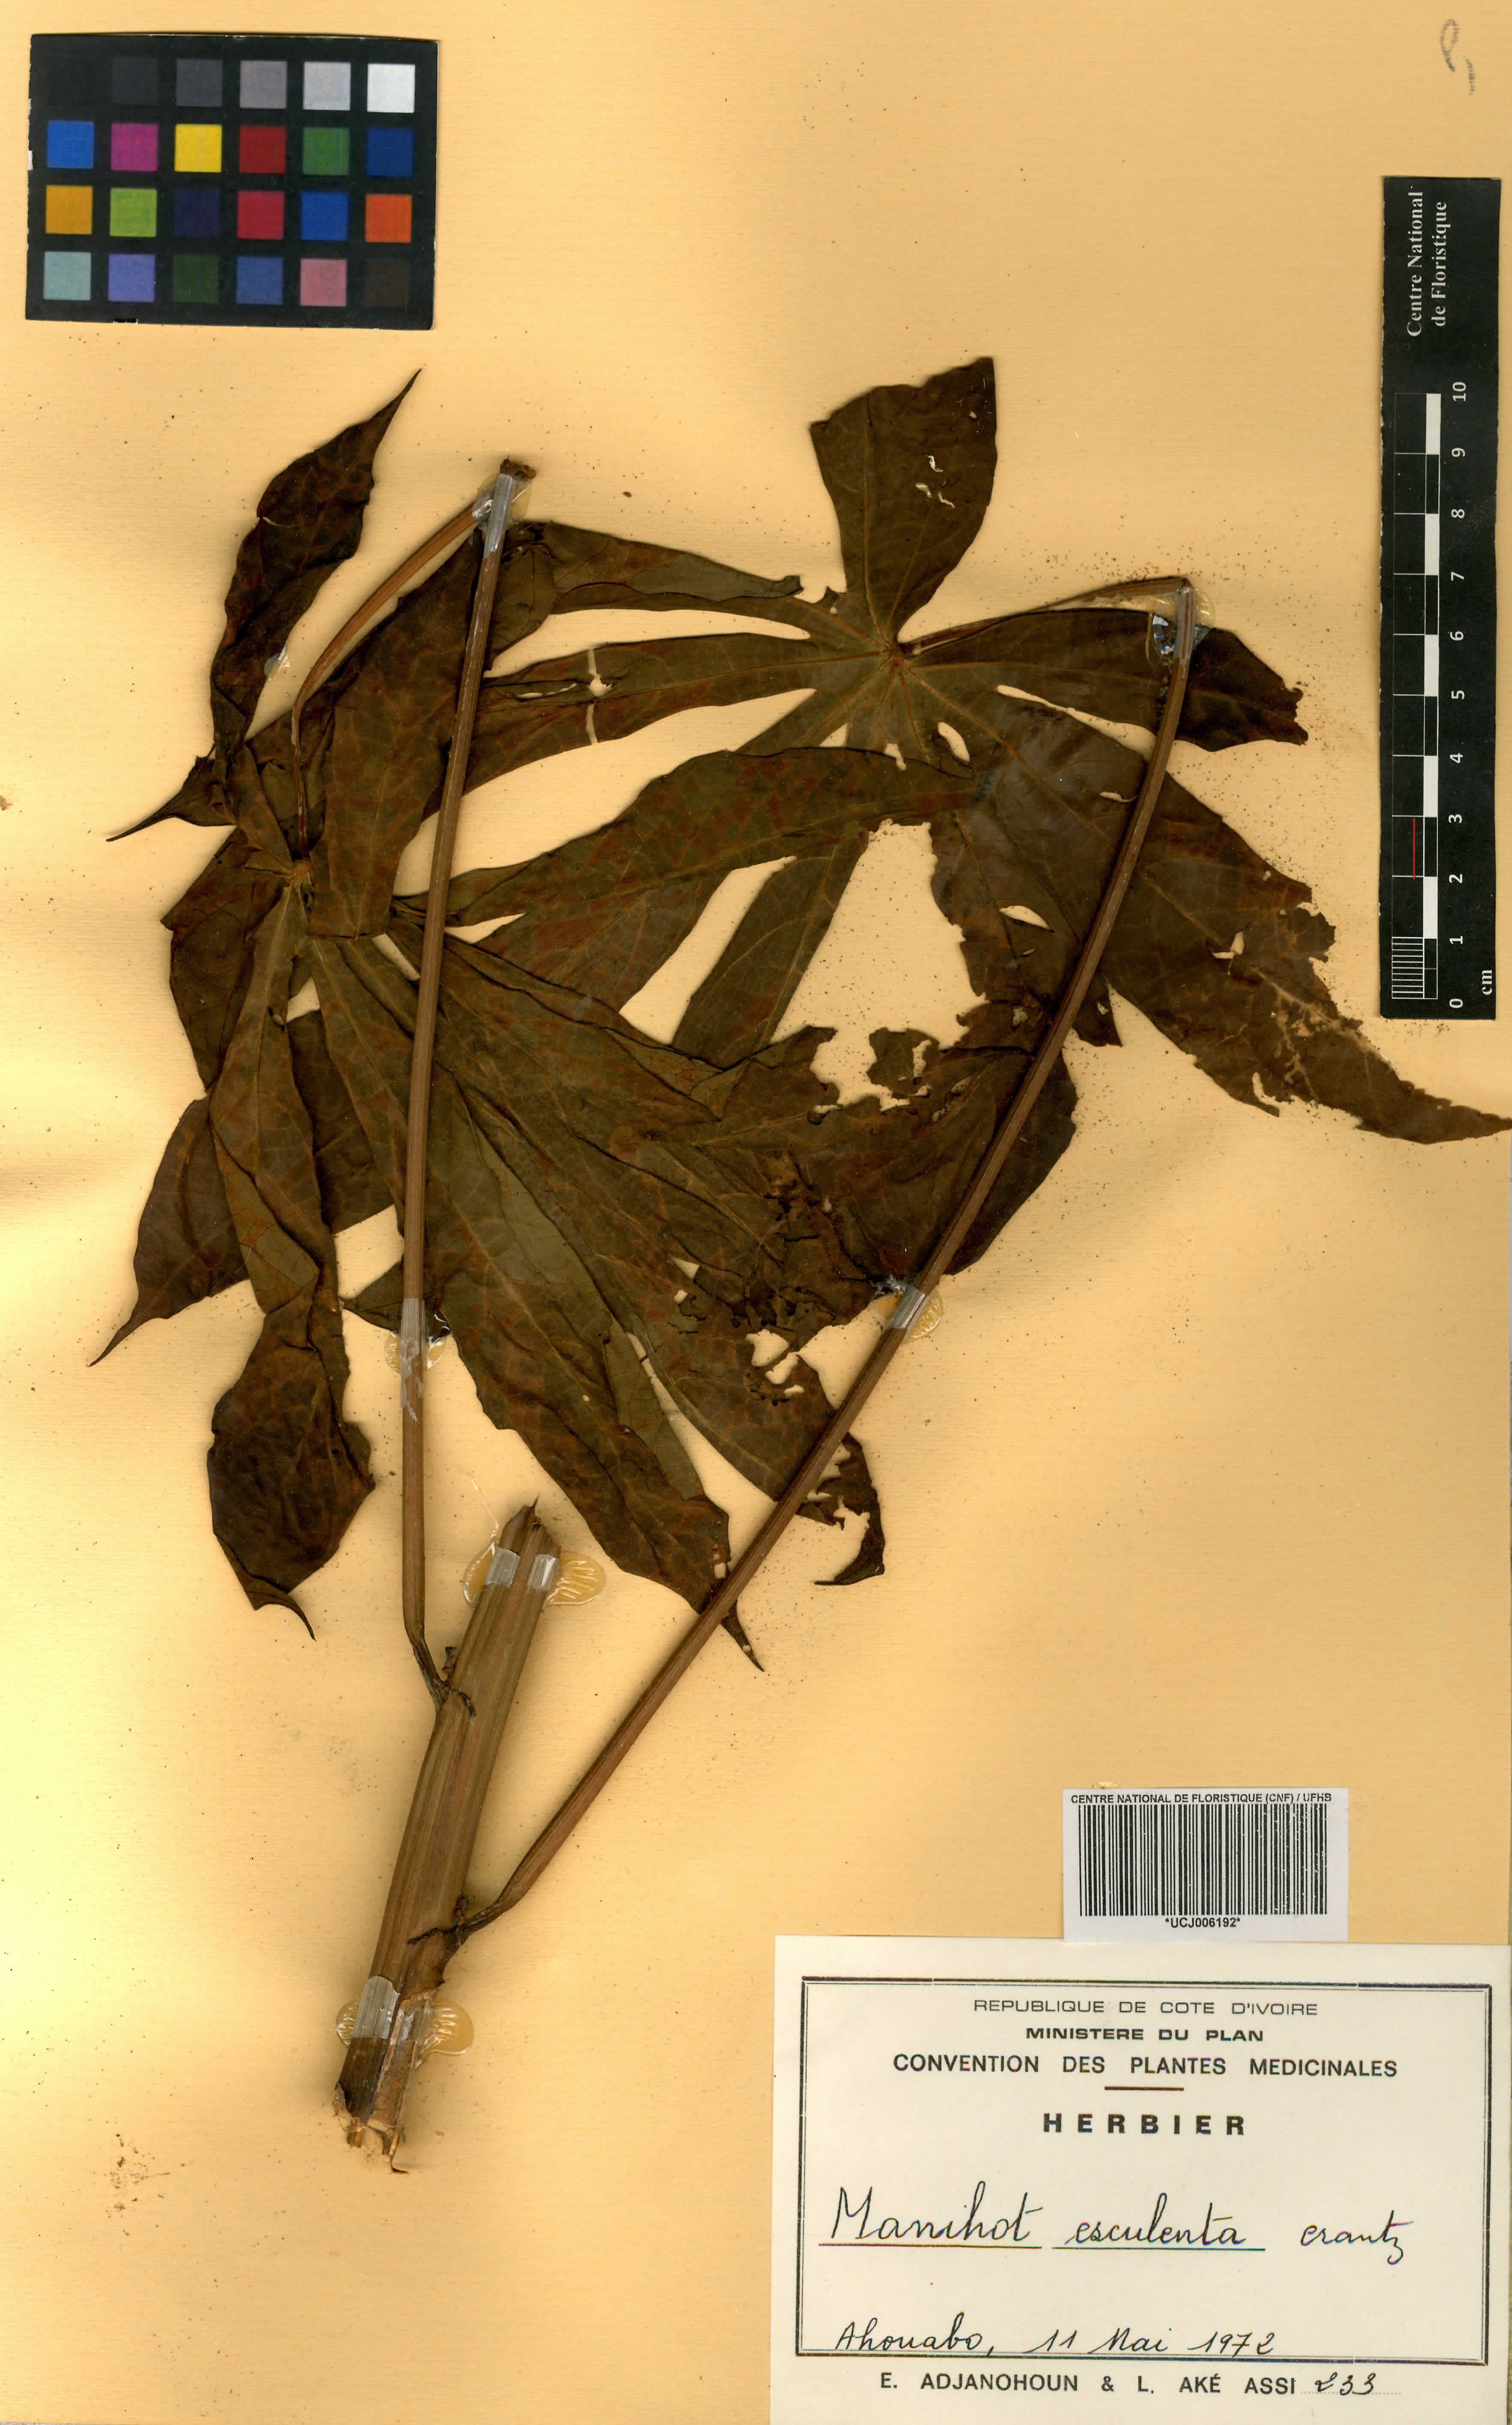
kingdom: Plantae
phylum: Tracheophyta
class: Magnoliopsida
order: Malpighiales
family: Euphorbiaceae
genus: Manihot
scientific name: Manihot esculenta
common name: Cassava
